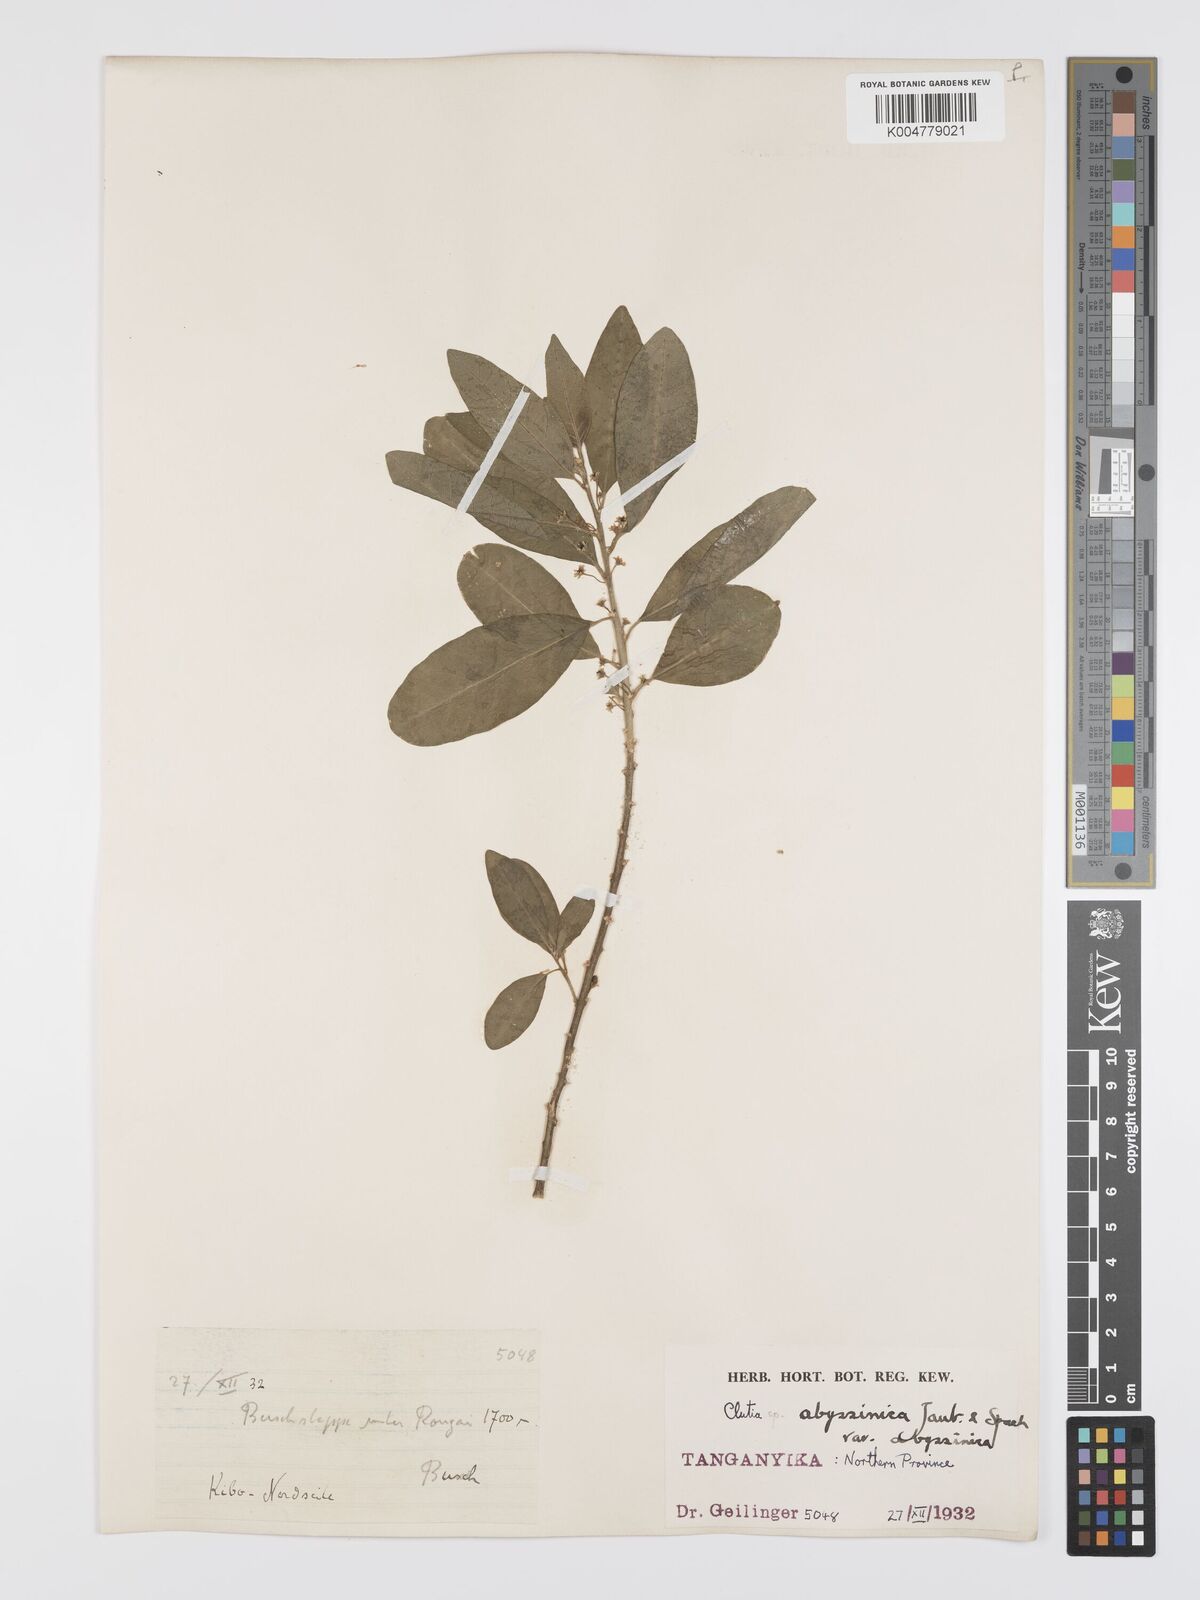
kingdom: Plantae
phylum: Tracheophyta
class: Magnoliopsida
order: Malpighiales
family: Peraceae
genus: Clutia
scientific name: Clutia abyssinica
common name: Large lightning bush
